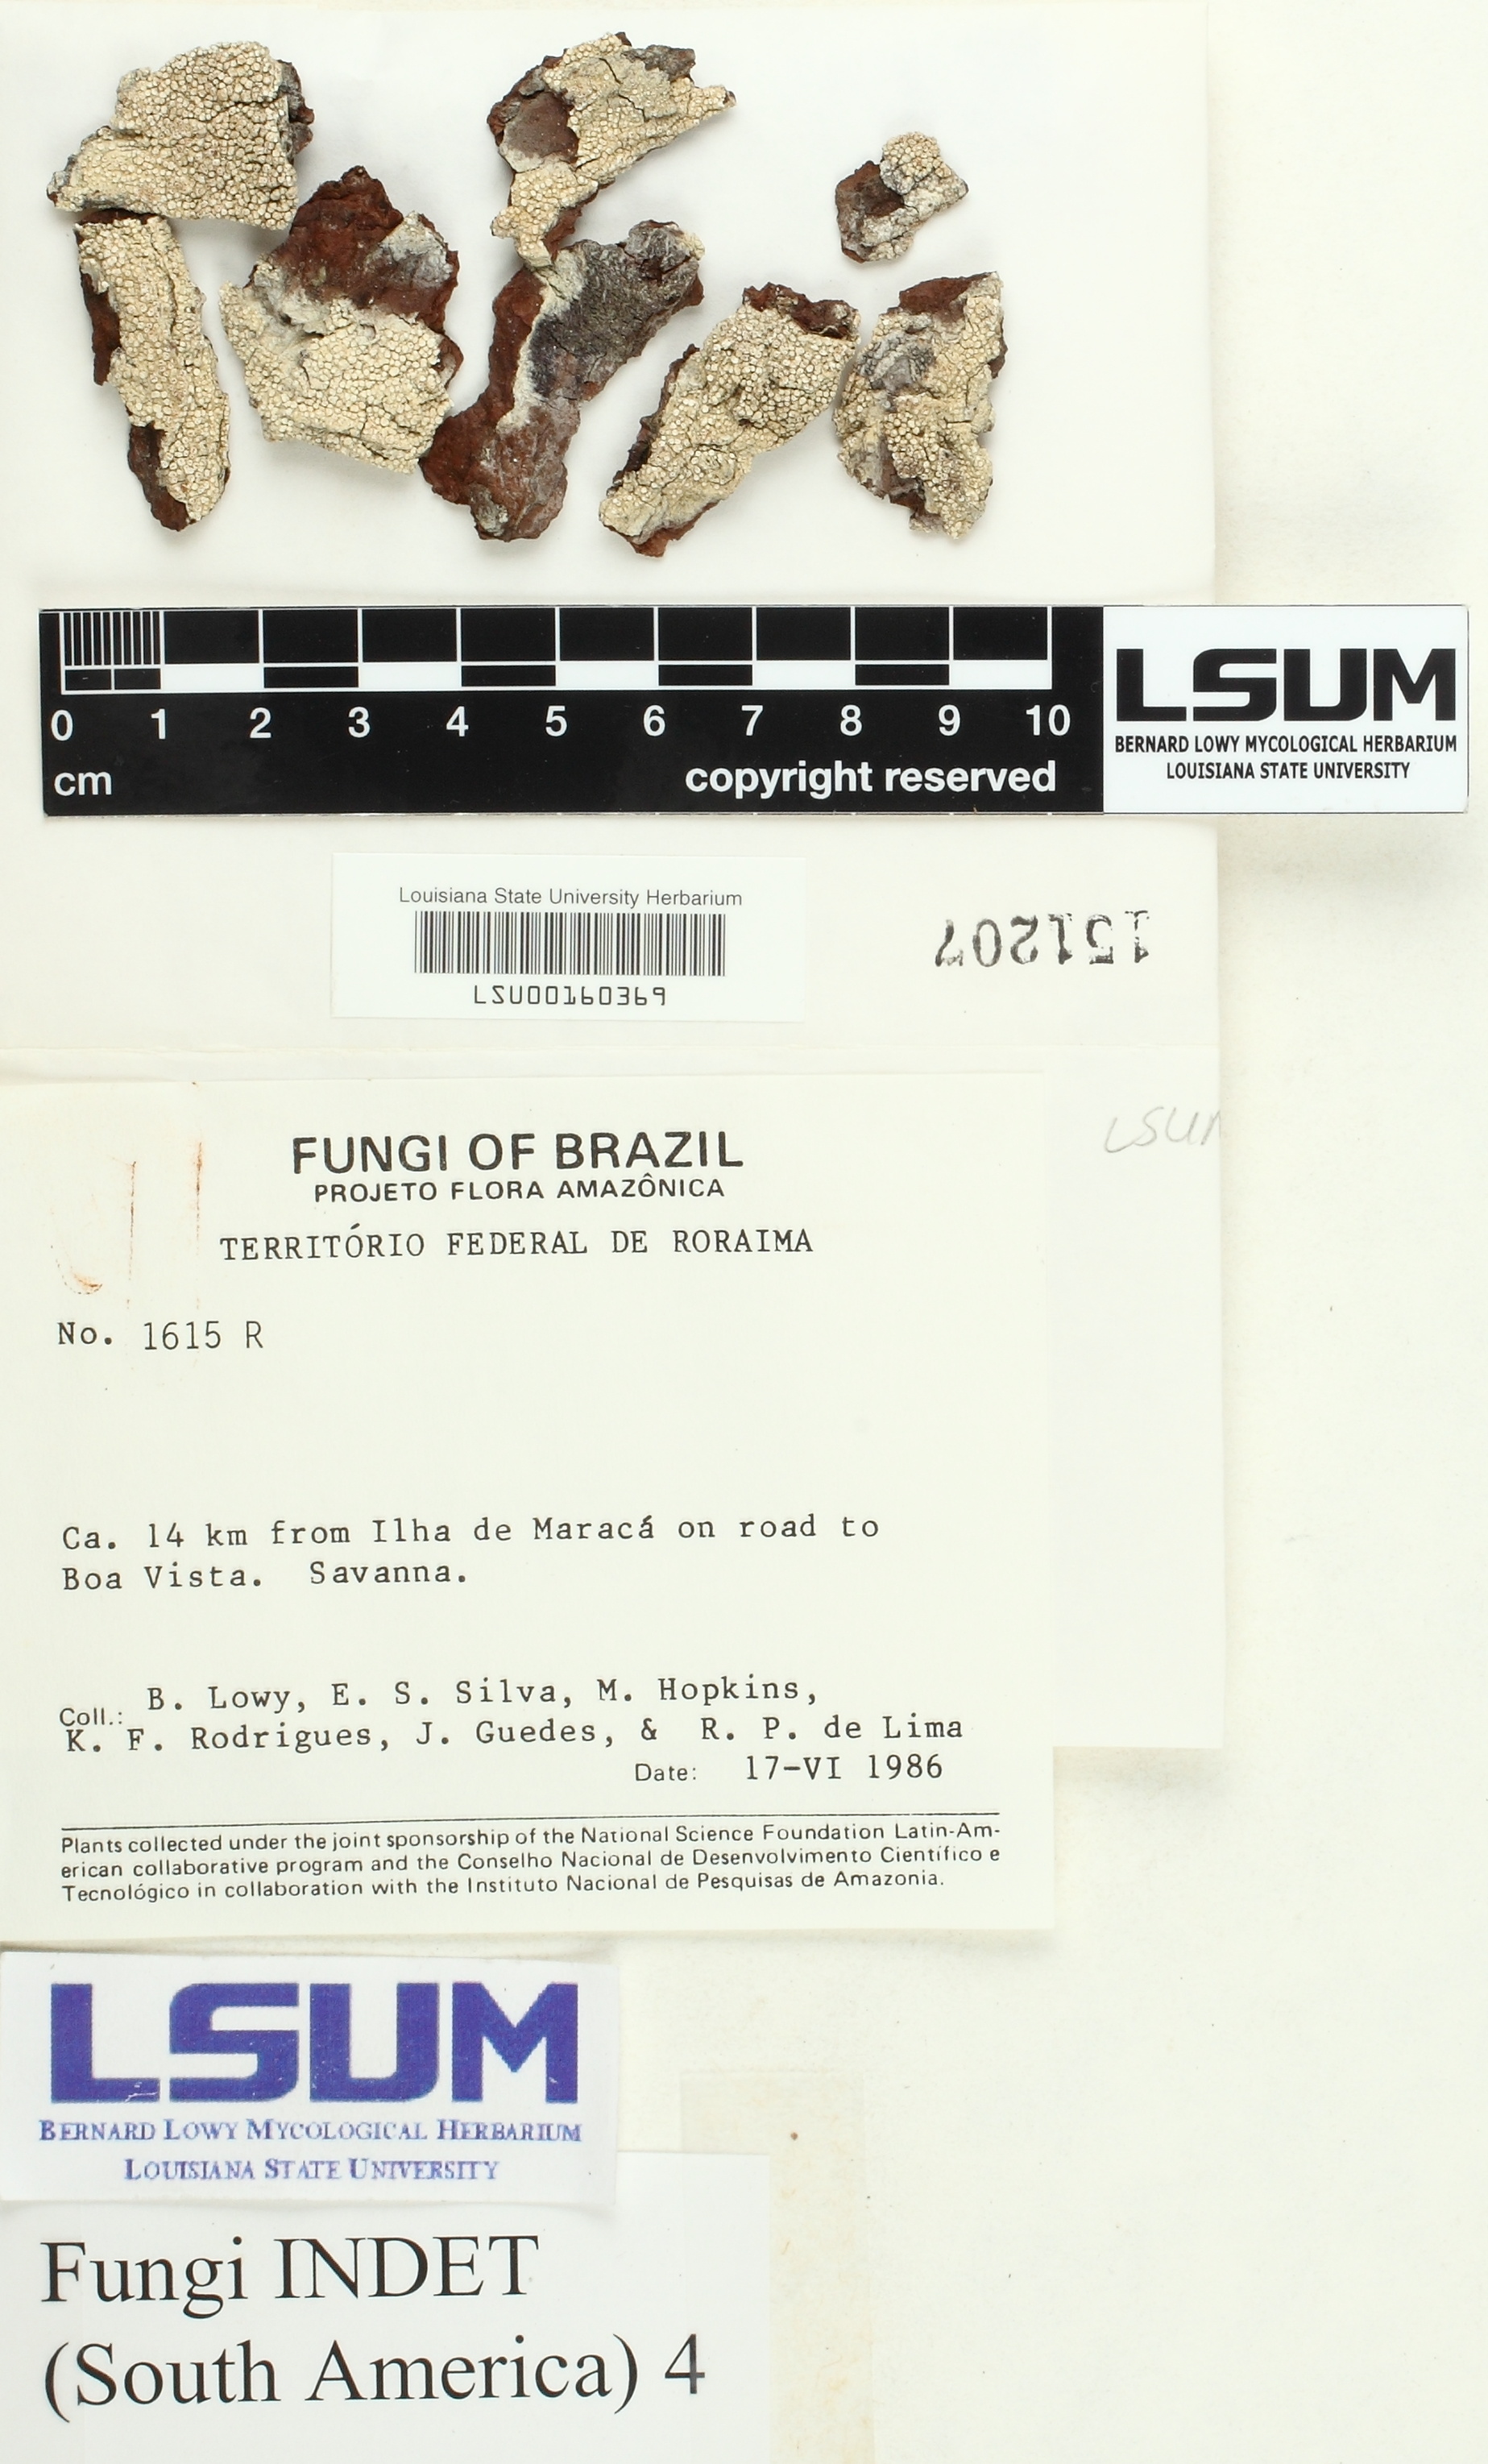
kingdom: Fungi
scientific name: Fungi
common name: Fungi
